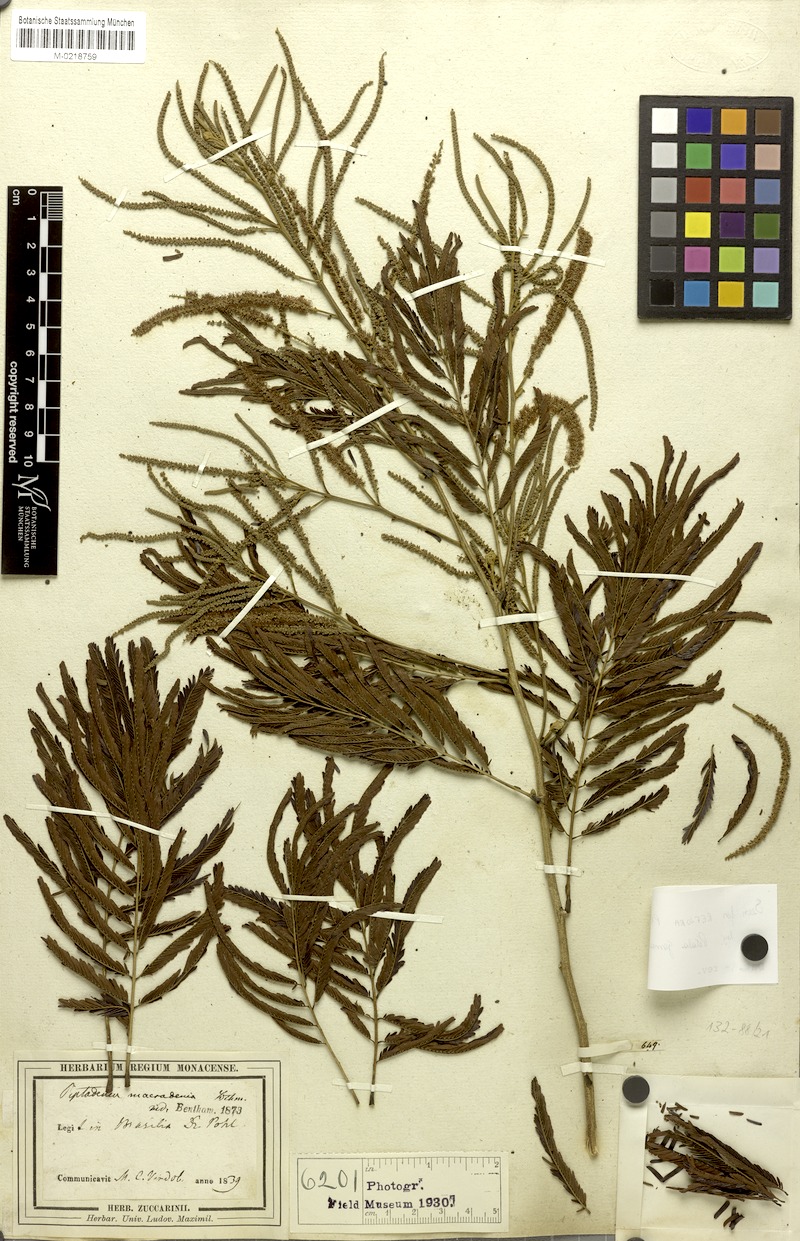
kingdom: Plantae
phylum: Tracheophyta
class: Magnoliopsida
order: Fabales
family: Fabaceae
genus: Piptadenia
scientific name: Piptadenia macradenia
